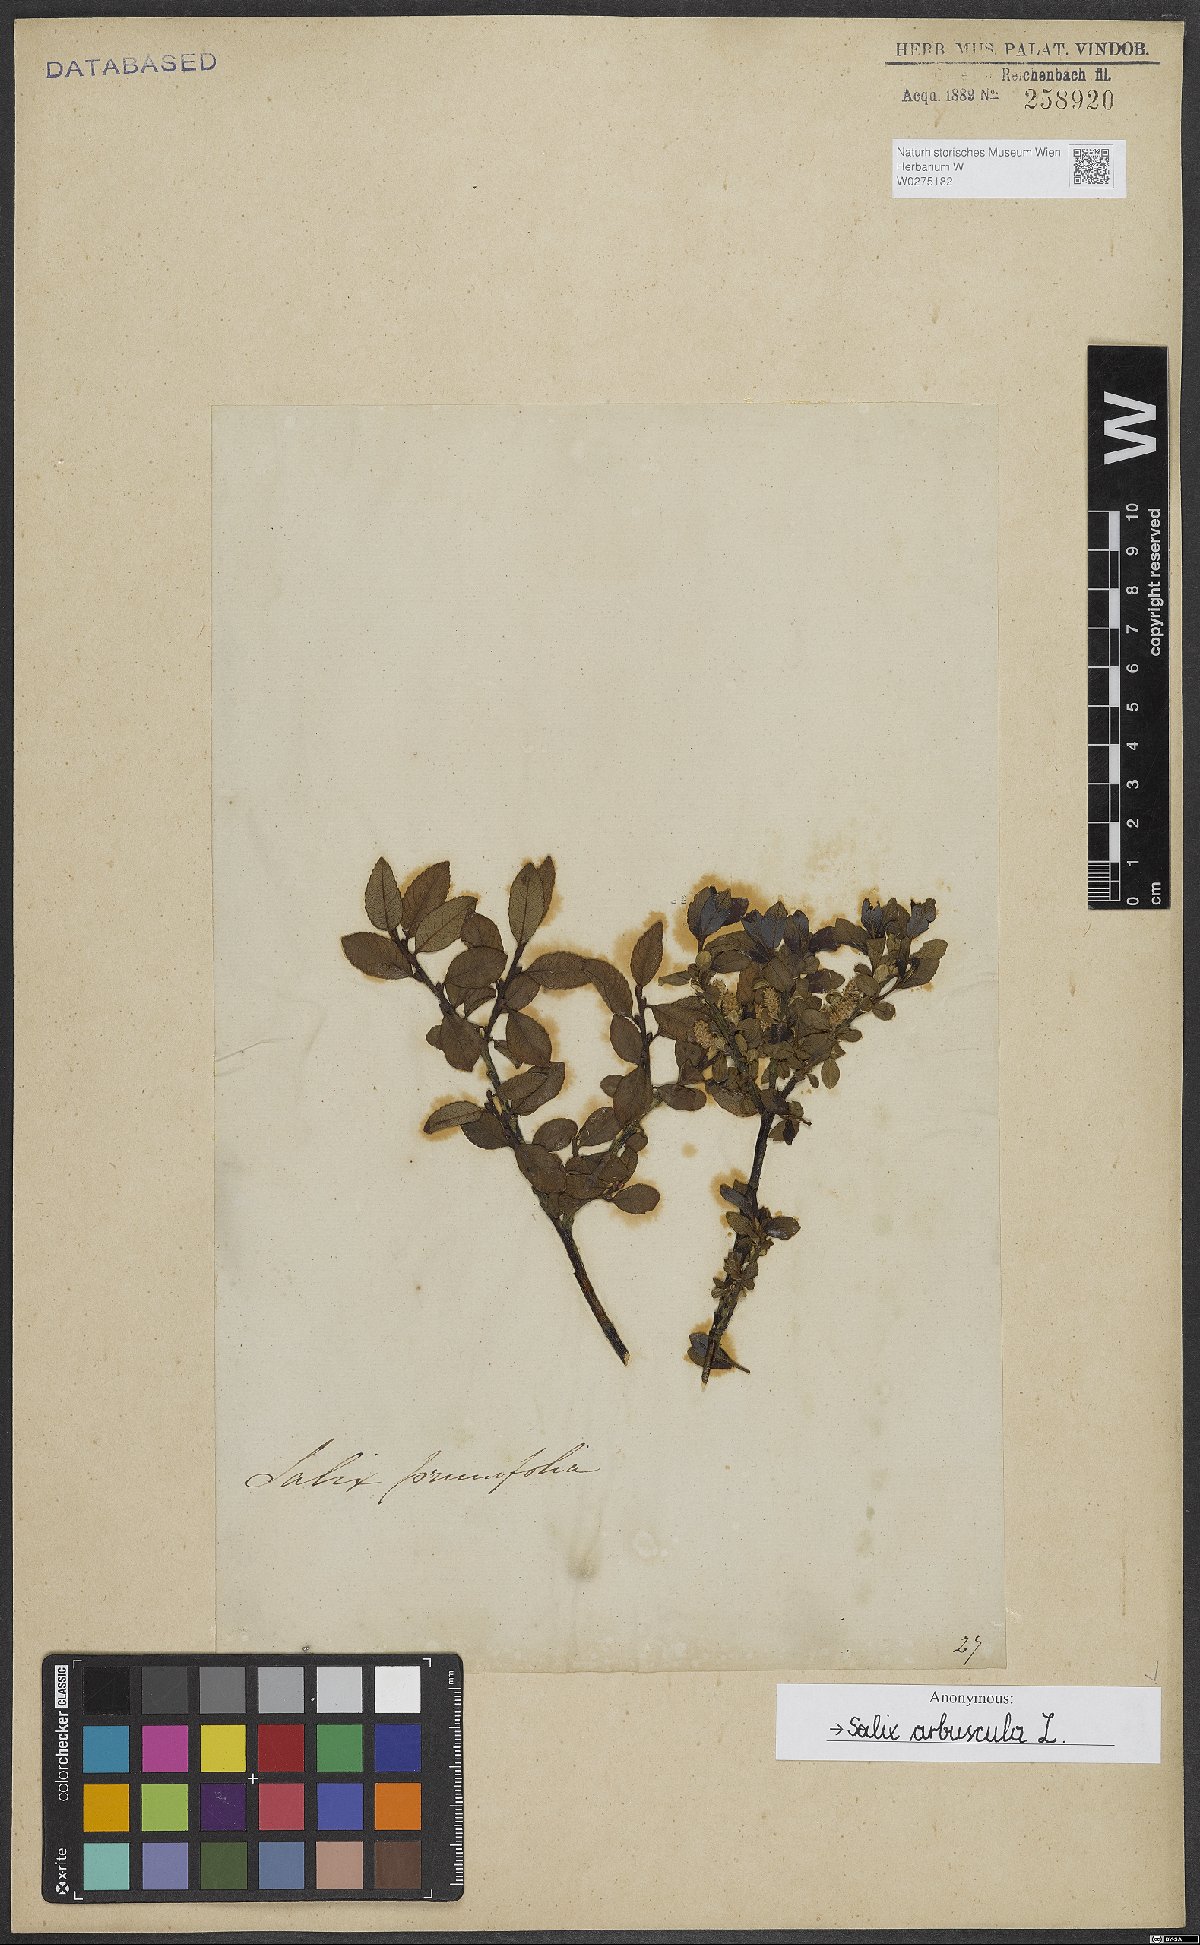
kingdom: Plantae
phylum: Tracheophyta
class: Magnoliopsida
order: Malpighiales
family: Salicaceae
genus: Salix
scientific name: Salix arbuscula
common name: Mountain willow
